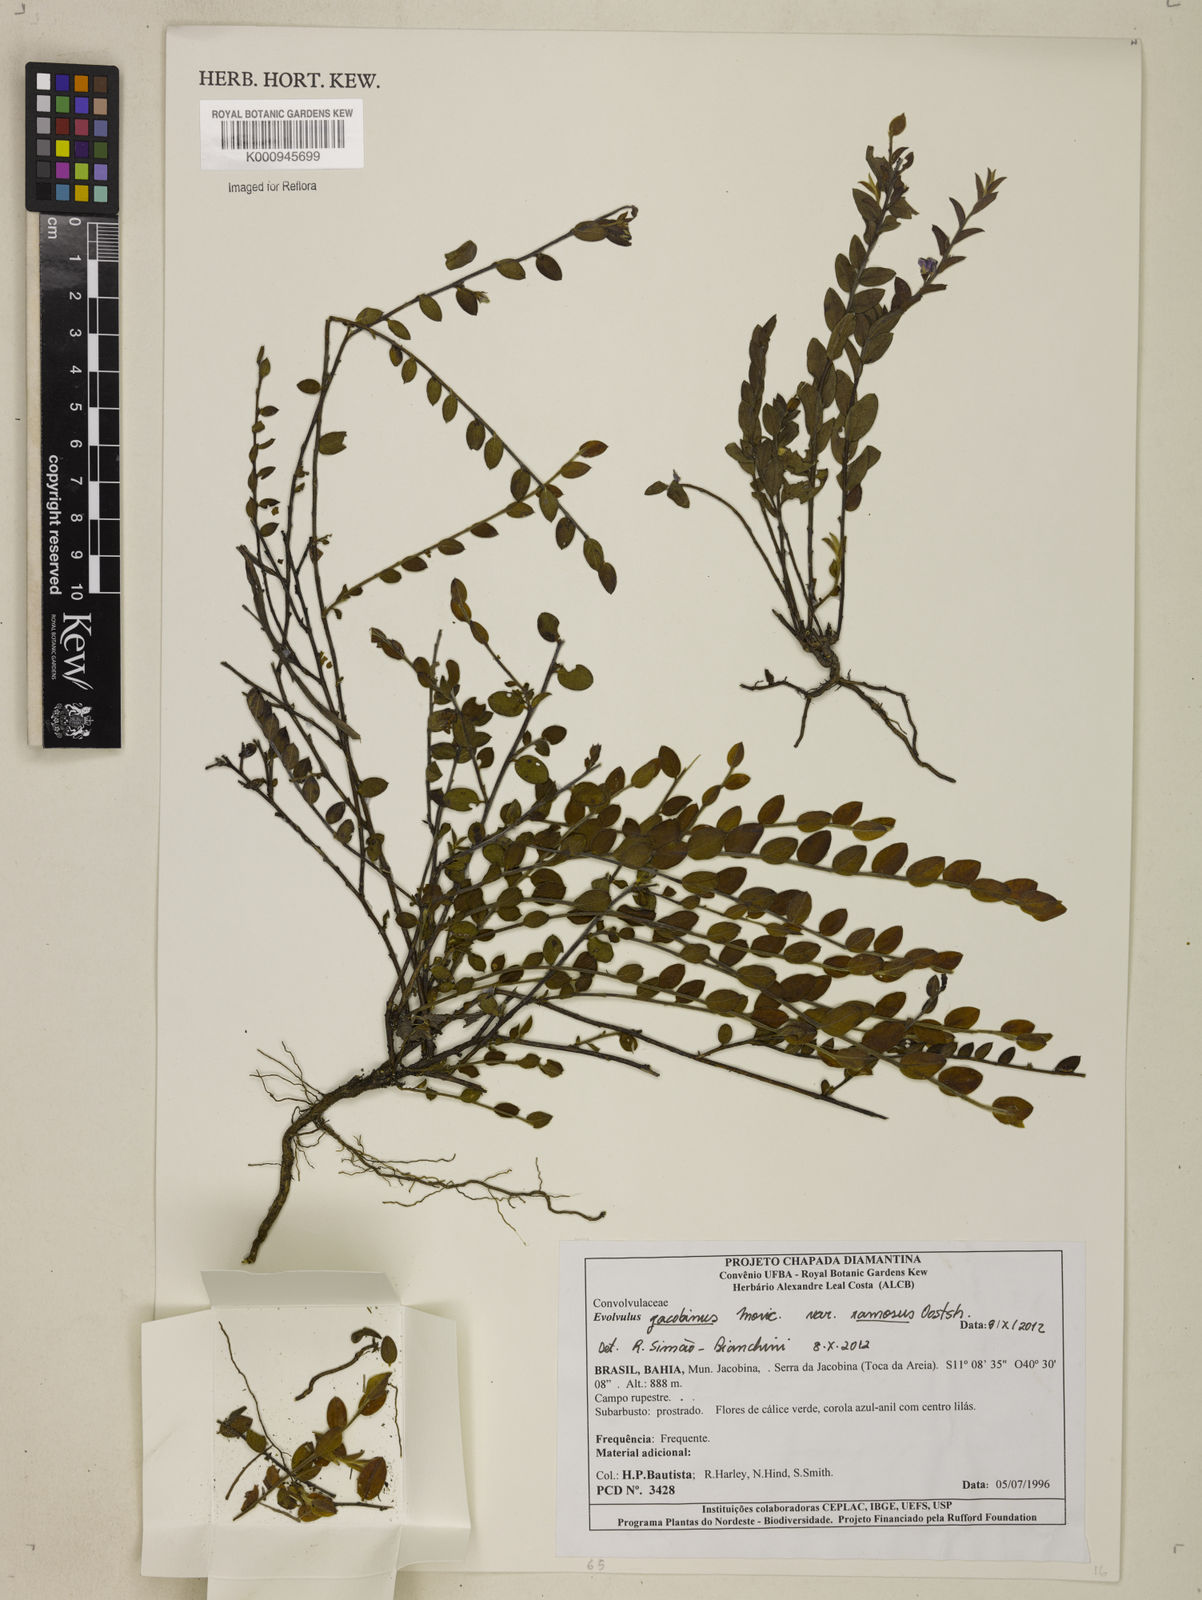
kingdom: Plantae
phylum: Tracheophyta
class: Magnoliopsida
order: Solanales
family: Convolvulaceae
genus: Evolvulus
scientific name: Evolvulus jacobinus
